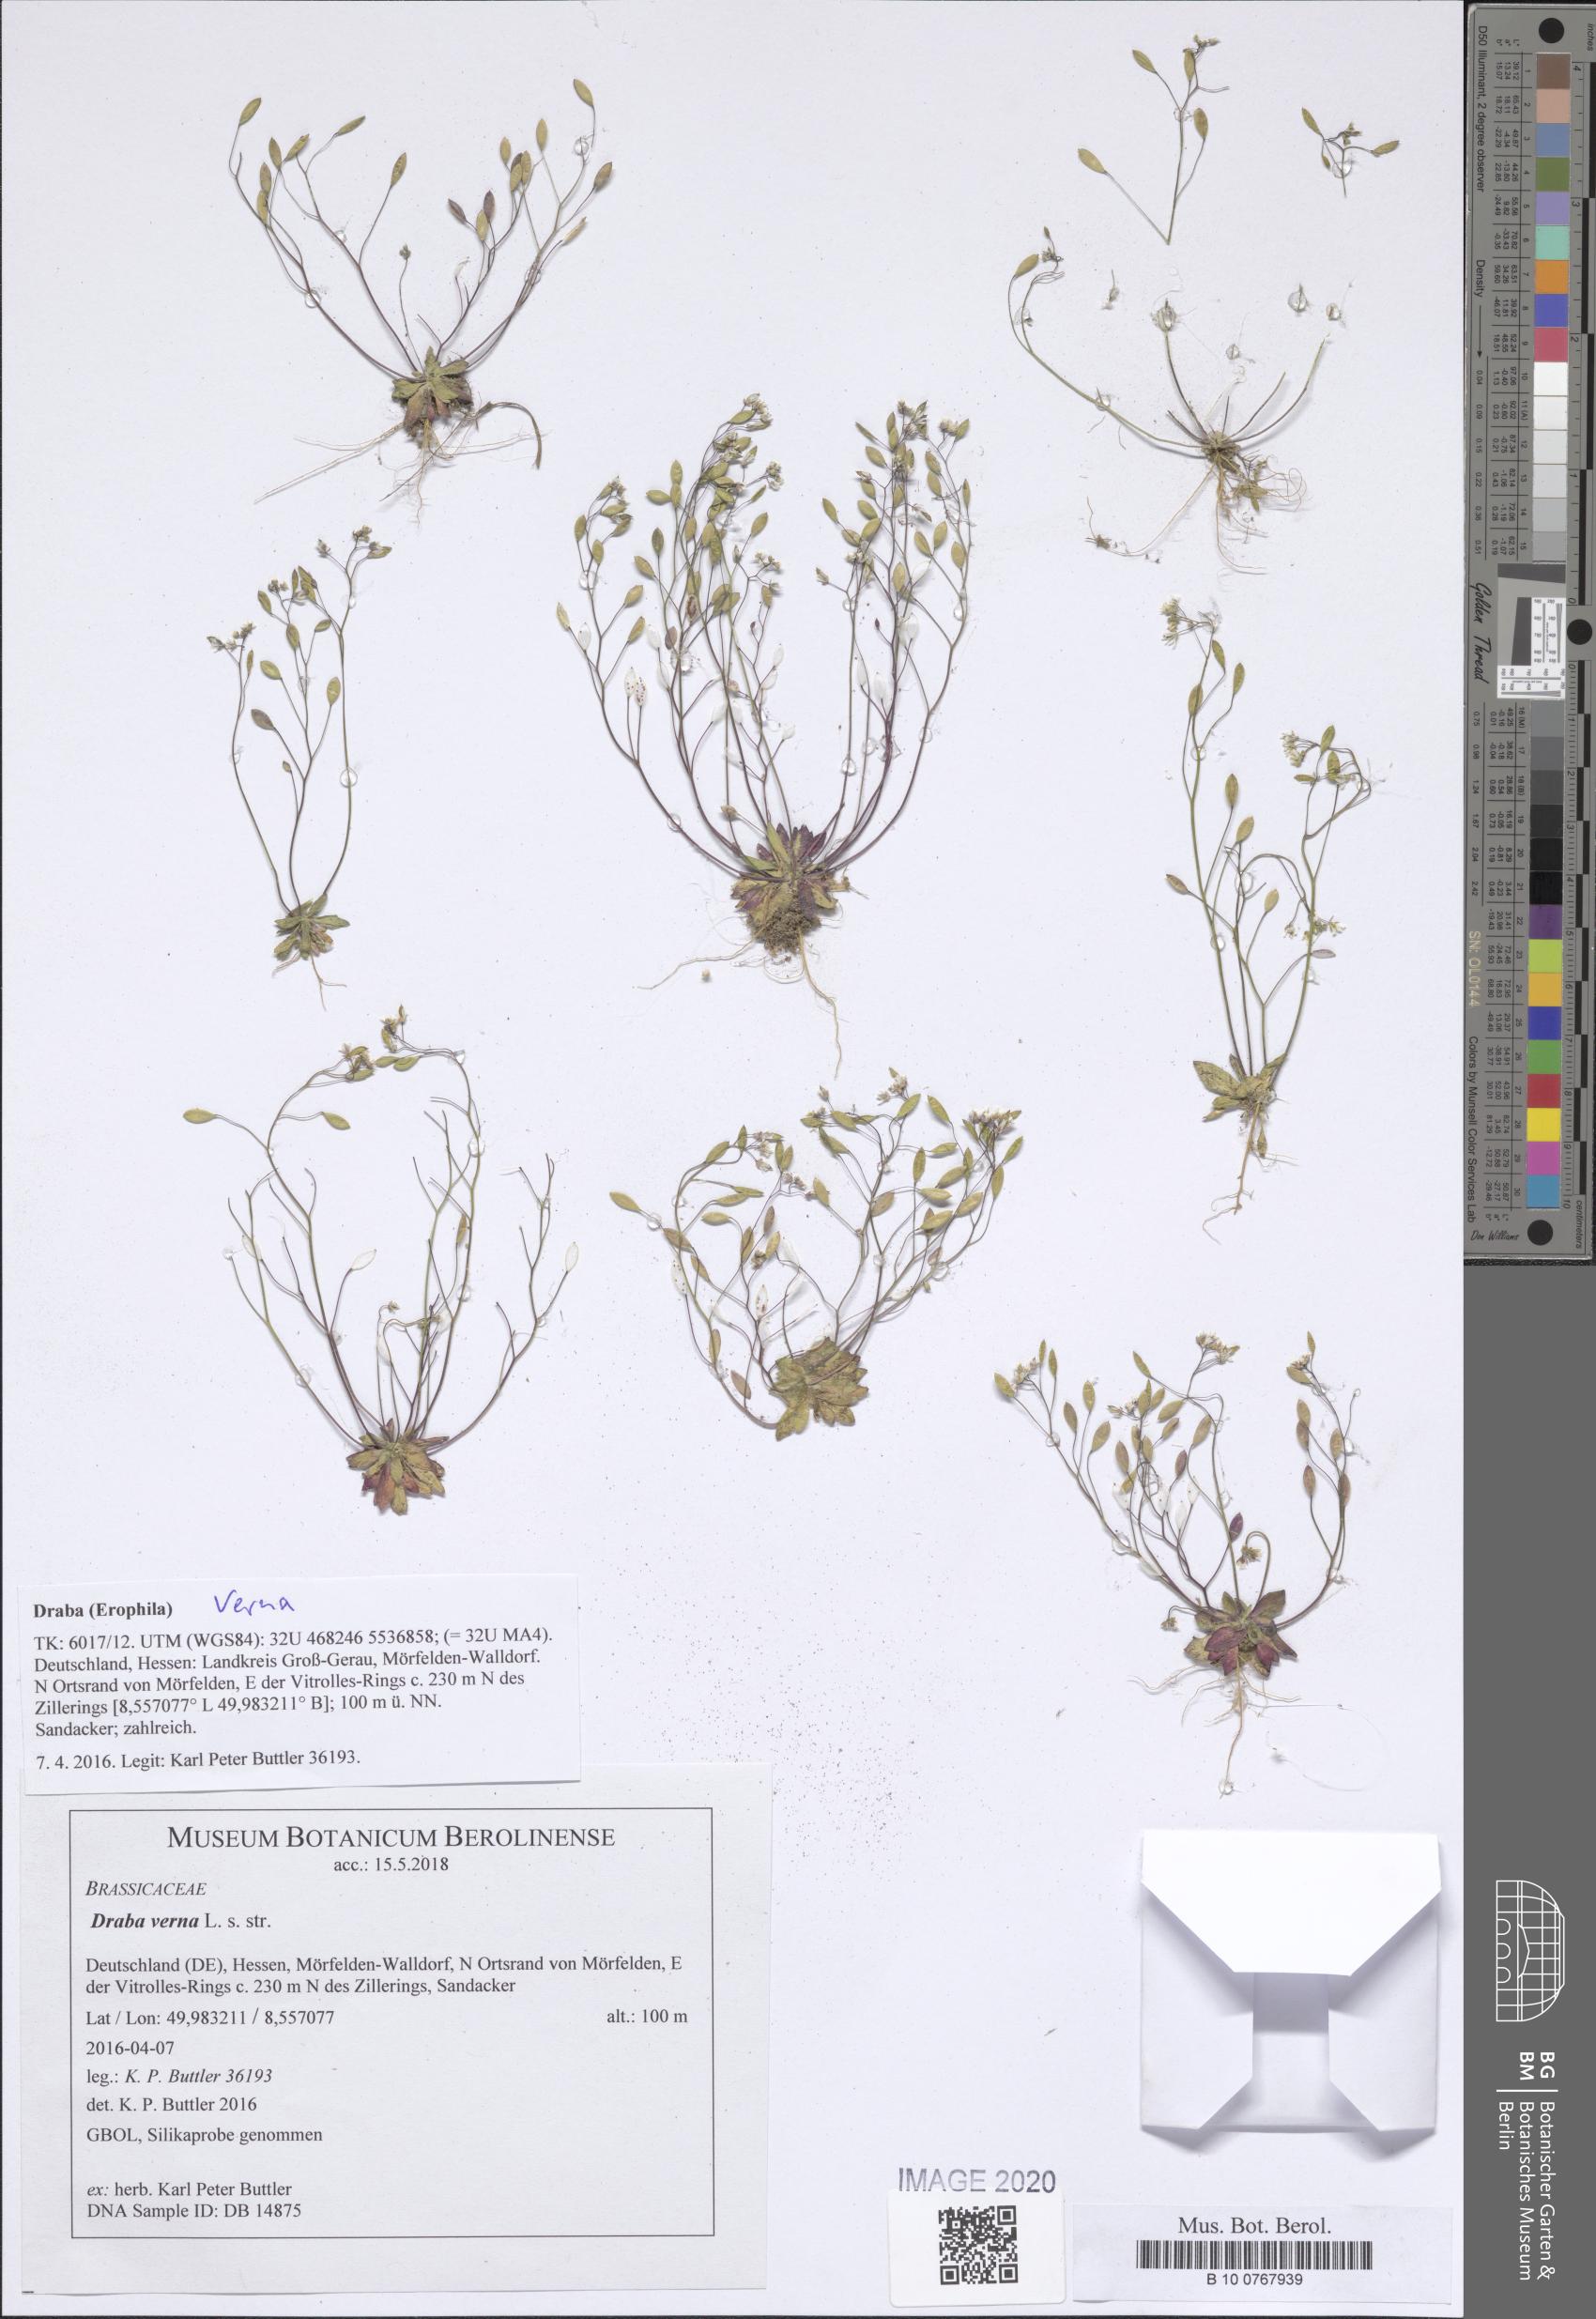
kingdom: Plantae
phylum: Tracheophyta
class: Magnoliopsida
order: Brassicales
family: Brassicaceae
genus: Draba
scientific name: Draba verna
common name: Spring draba
